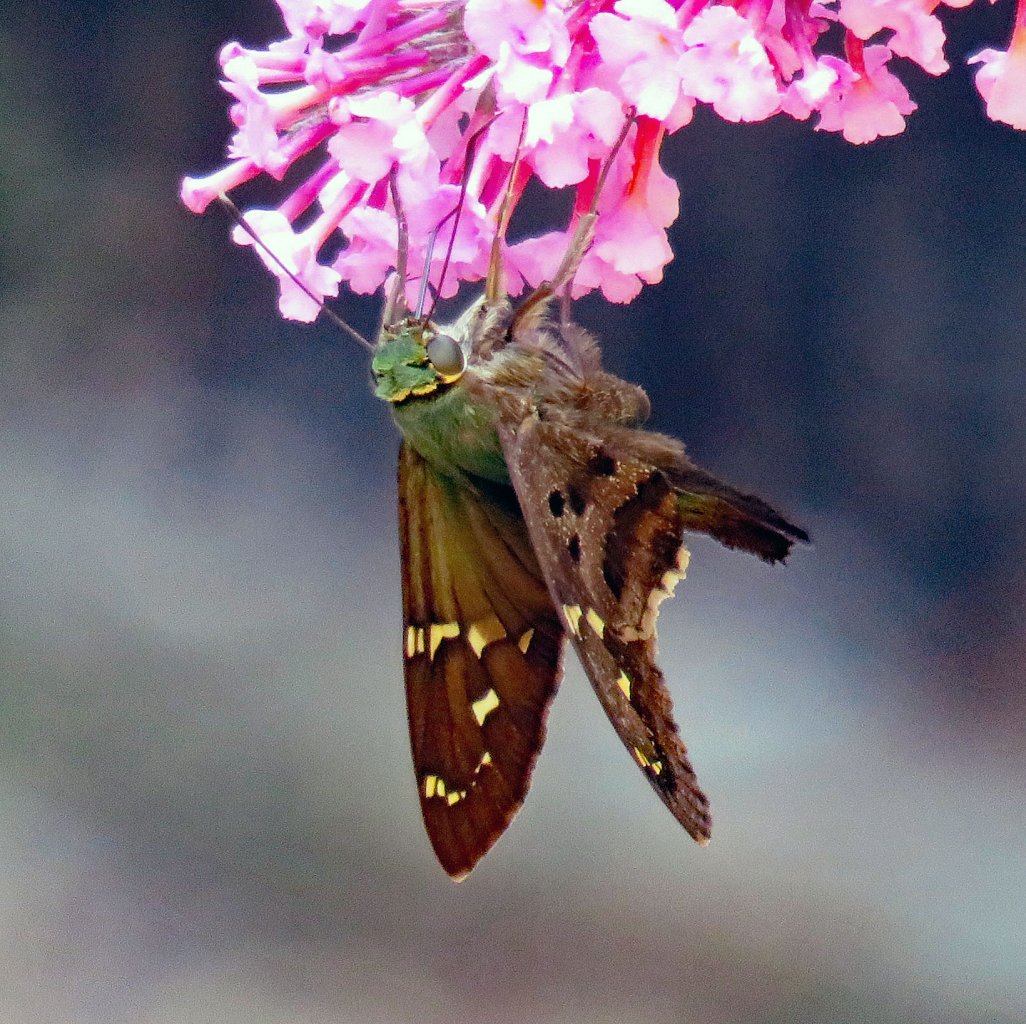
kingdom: Animalia
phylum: Arthropoda
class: Insecta
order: Lepidoptera
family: Hesperiidae
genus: Urbanus
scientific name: Urbanus proteus
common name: Long-tailed Skipper
